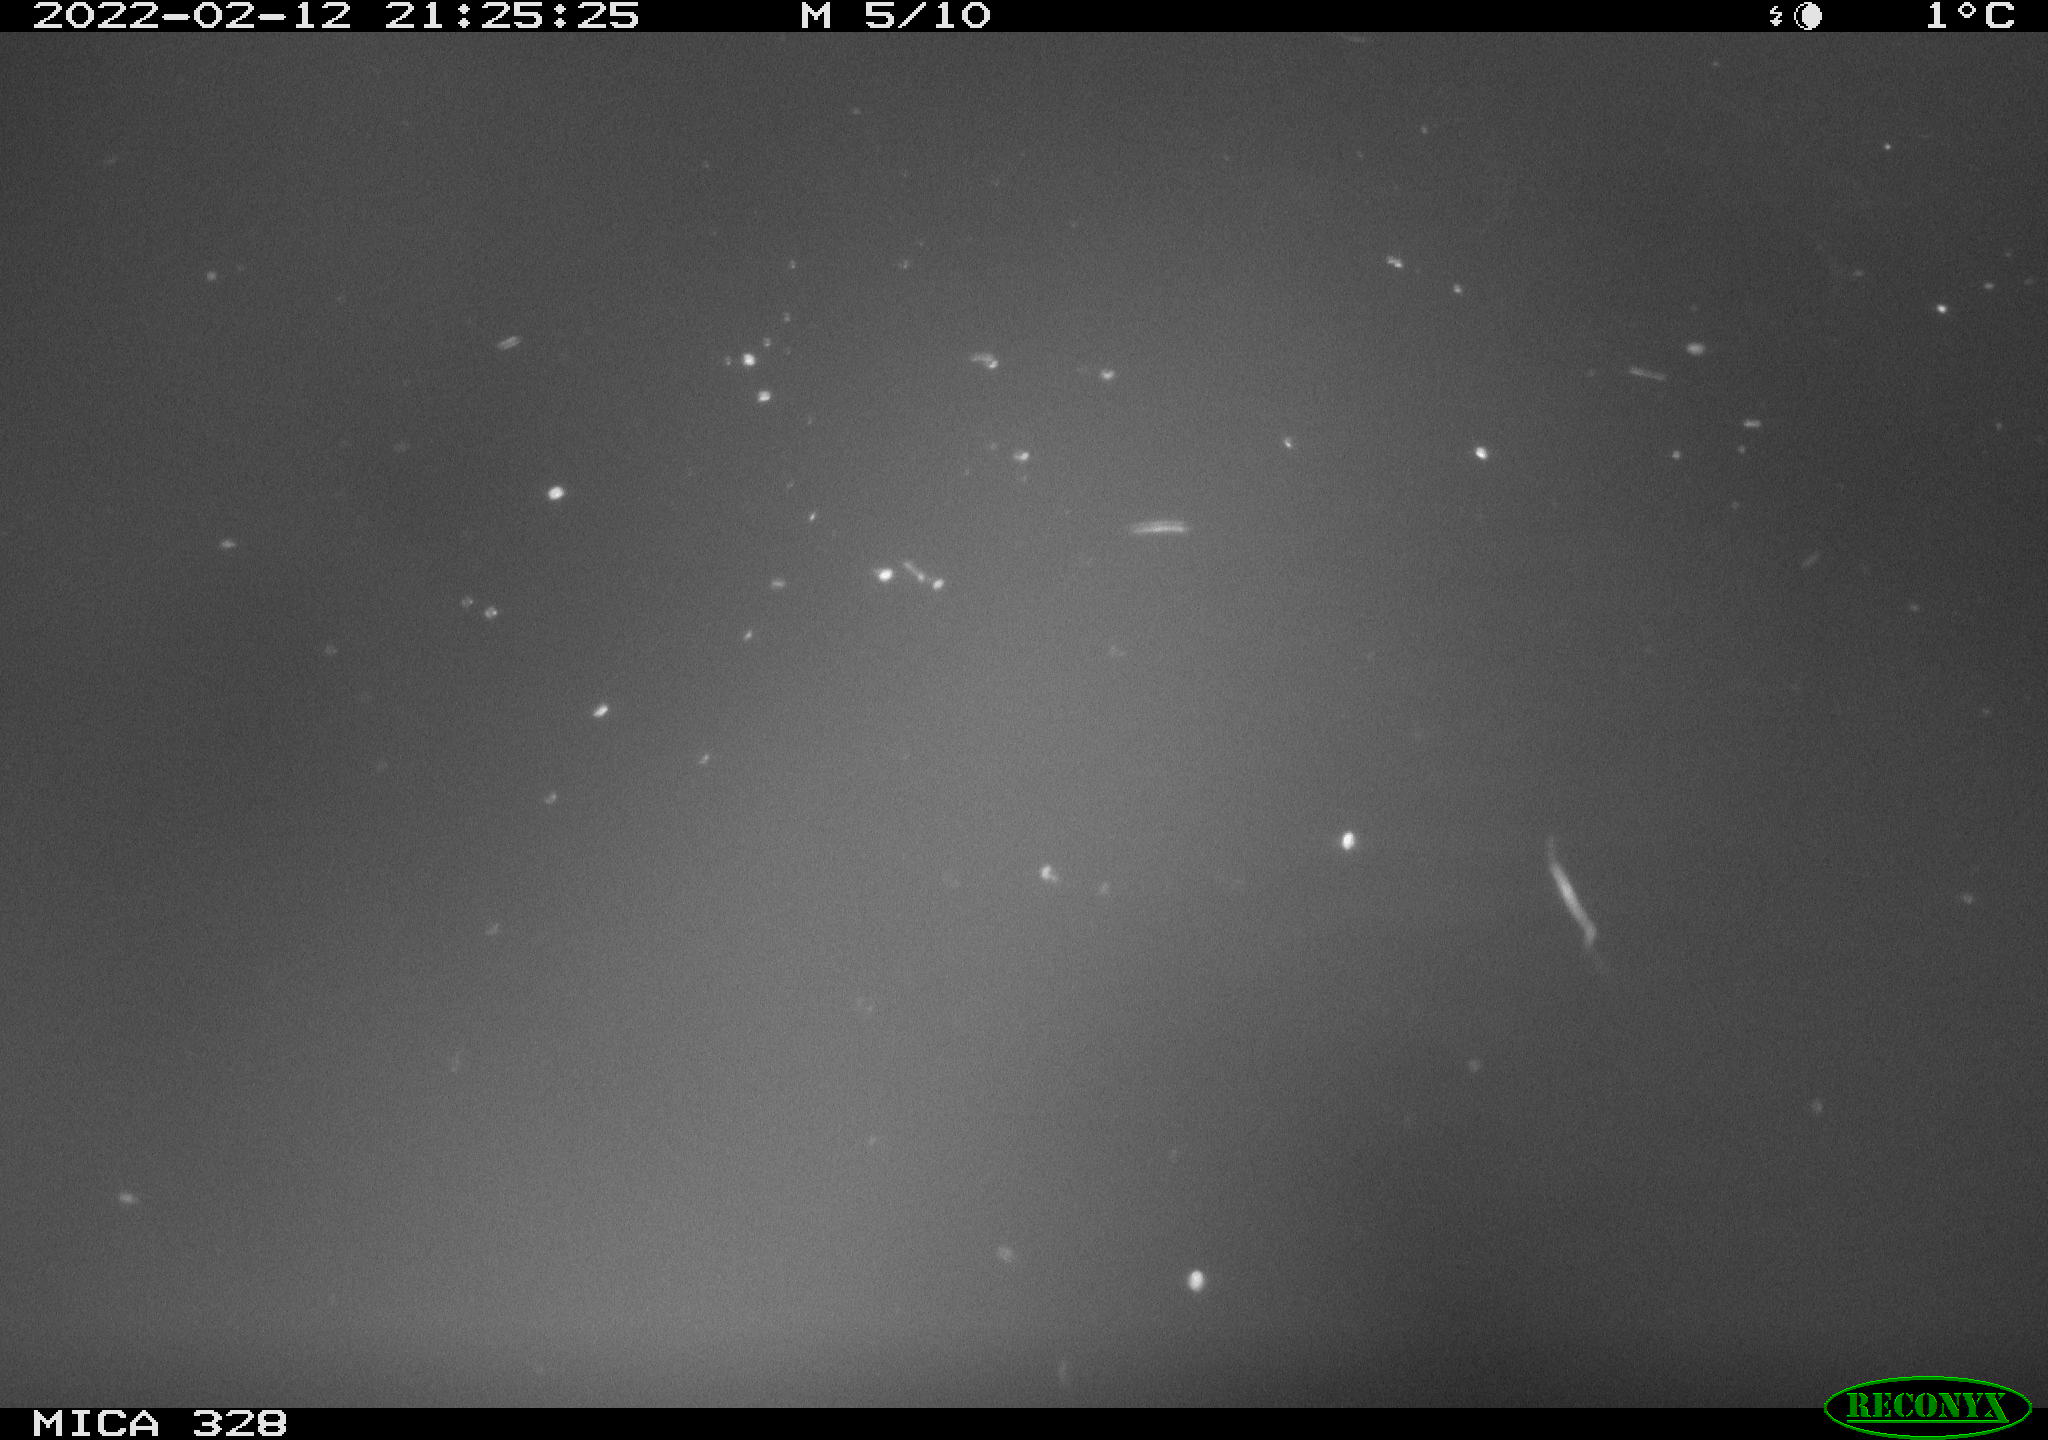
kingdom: Animalia
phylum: Chordata
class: Aves
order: Anseriformes
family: Anatidae
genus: Anas
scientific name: Anas platyrhynchos
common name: Mallard
